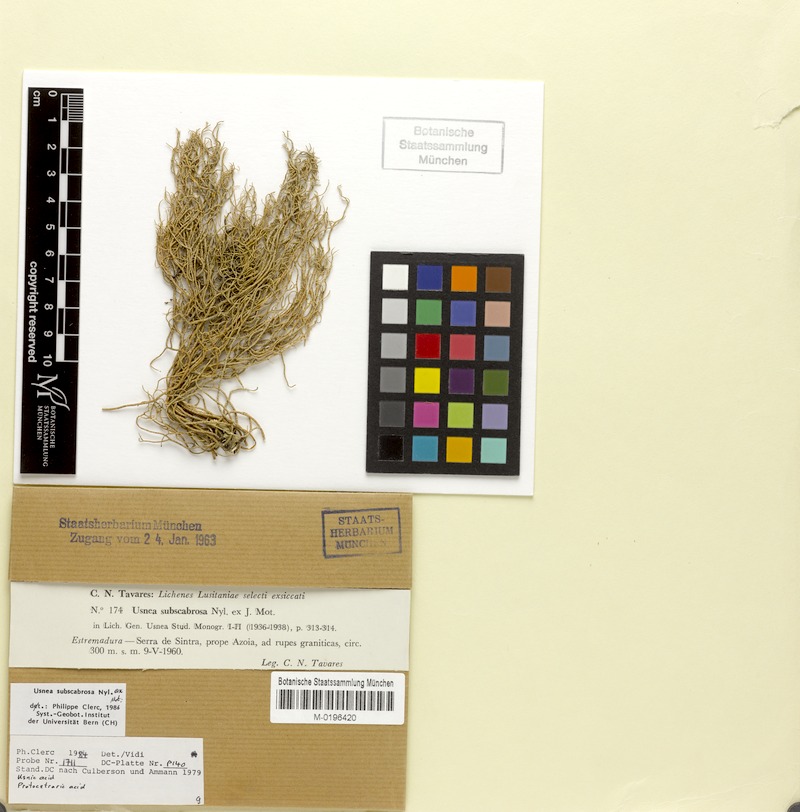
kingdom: Fungi
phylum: Ascomycota
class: Lecanoromycetes
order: Lecanorales
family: Parmeliaceae
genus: Usnea
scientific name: Usnea subscabrosa
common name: Beard lichen
